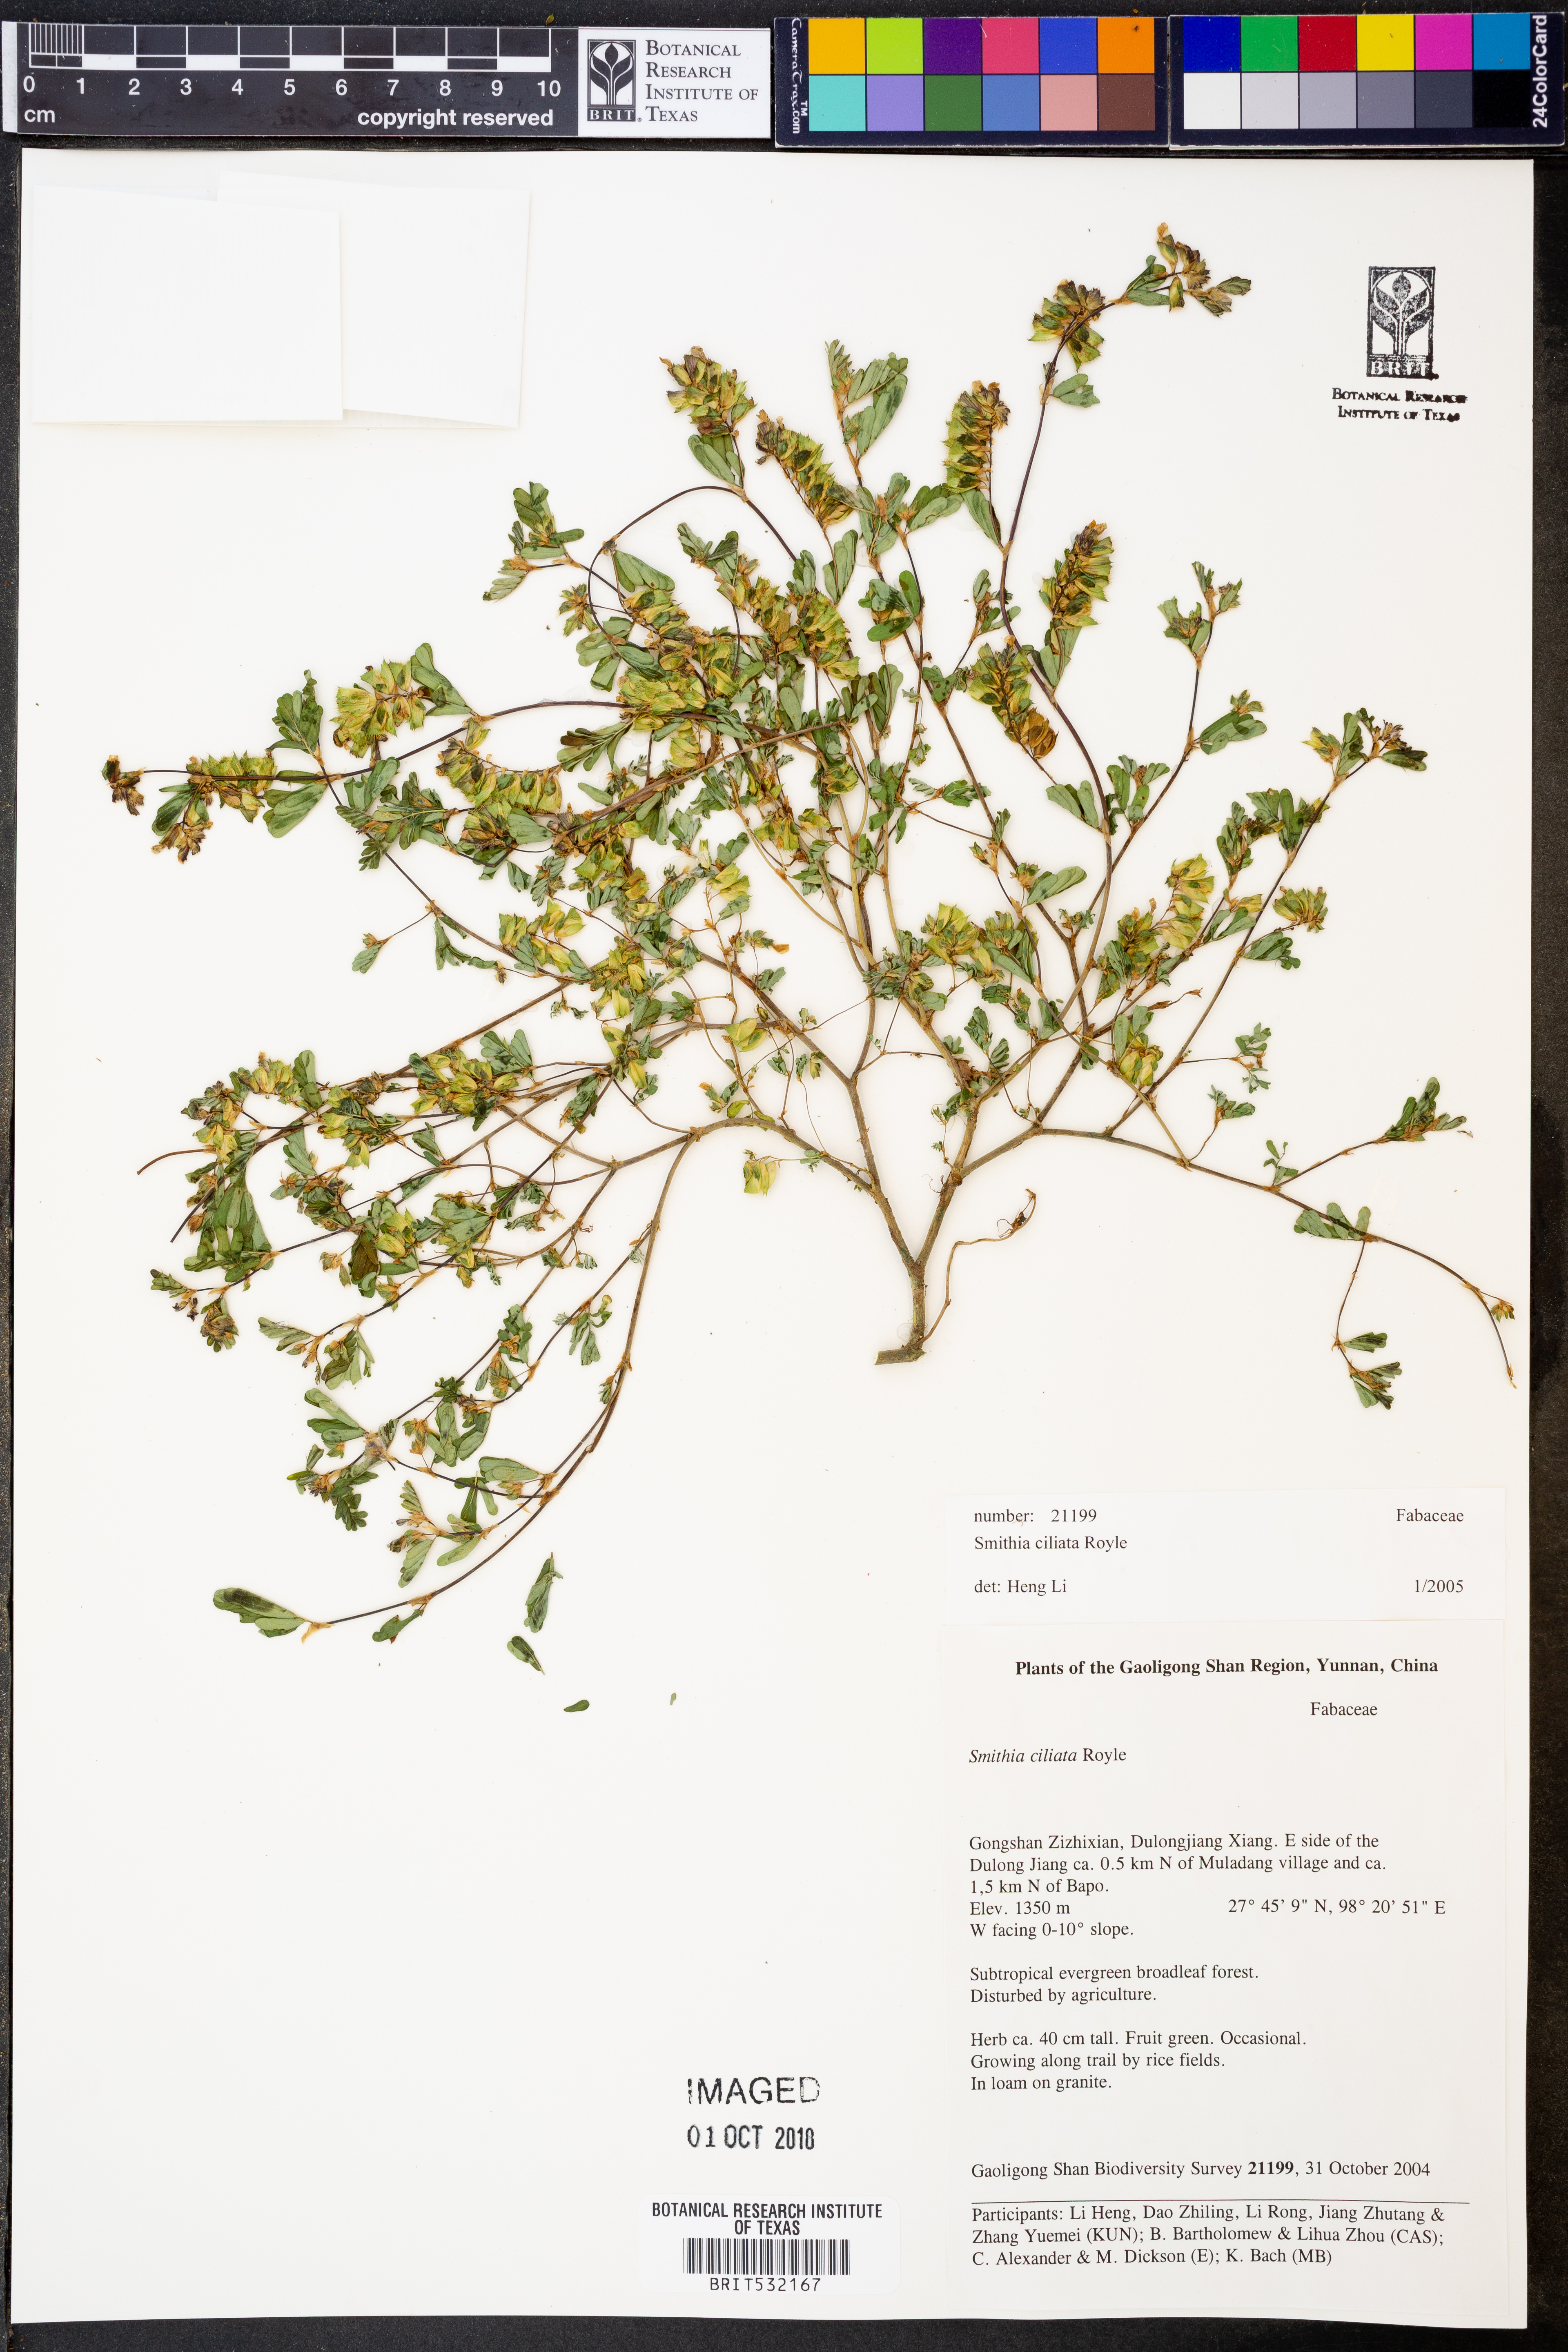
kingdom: Plantae
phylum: Tracheophyta
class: Magnoliopsida
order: Fabales
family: Fabaceae
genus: Smithia
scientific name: Smithia ciliata
